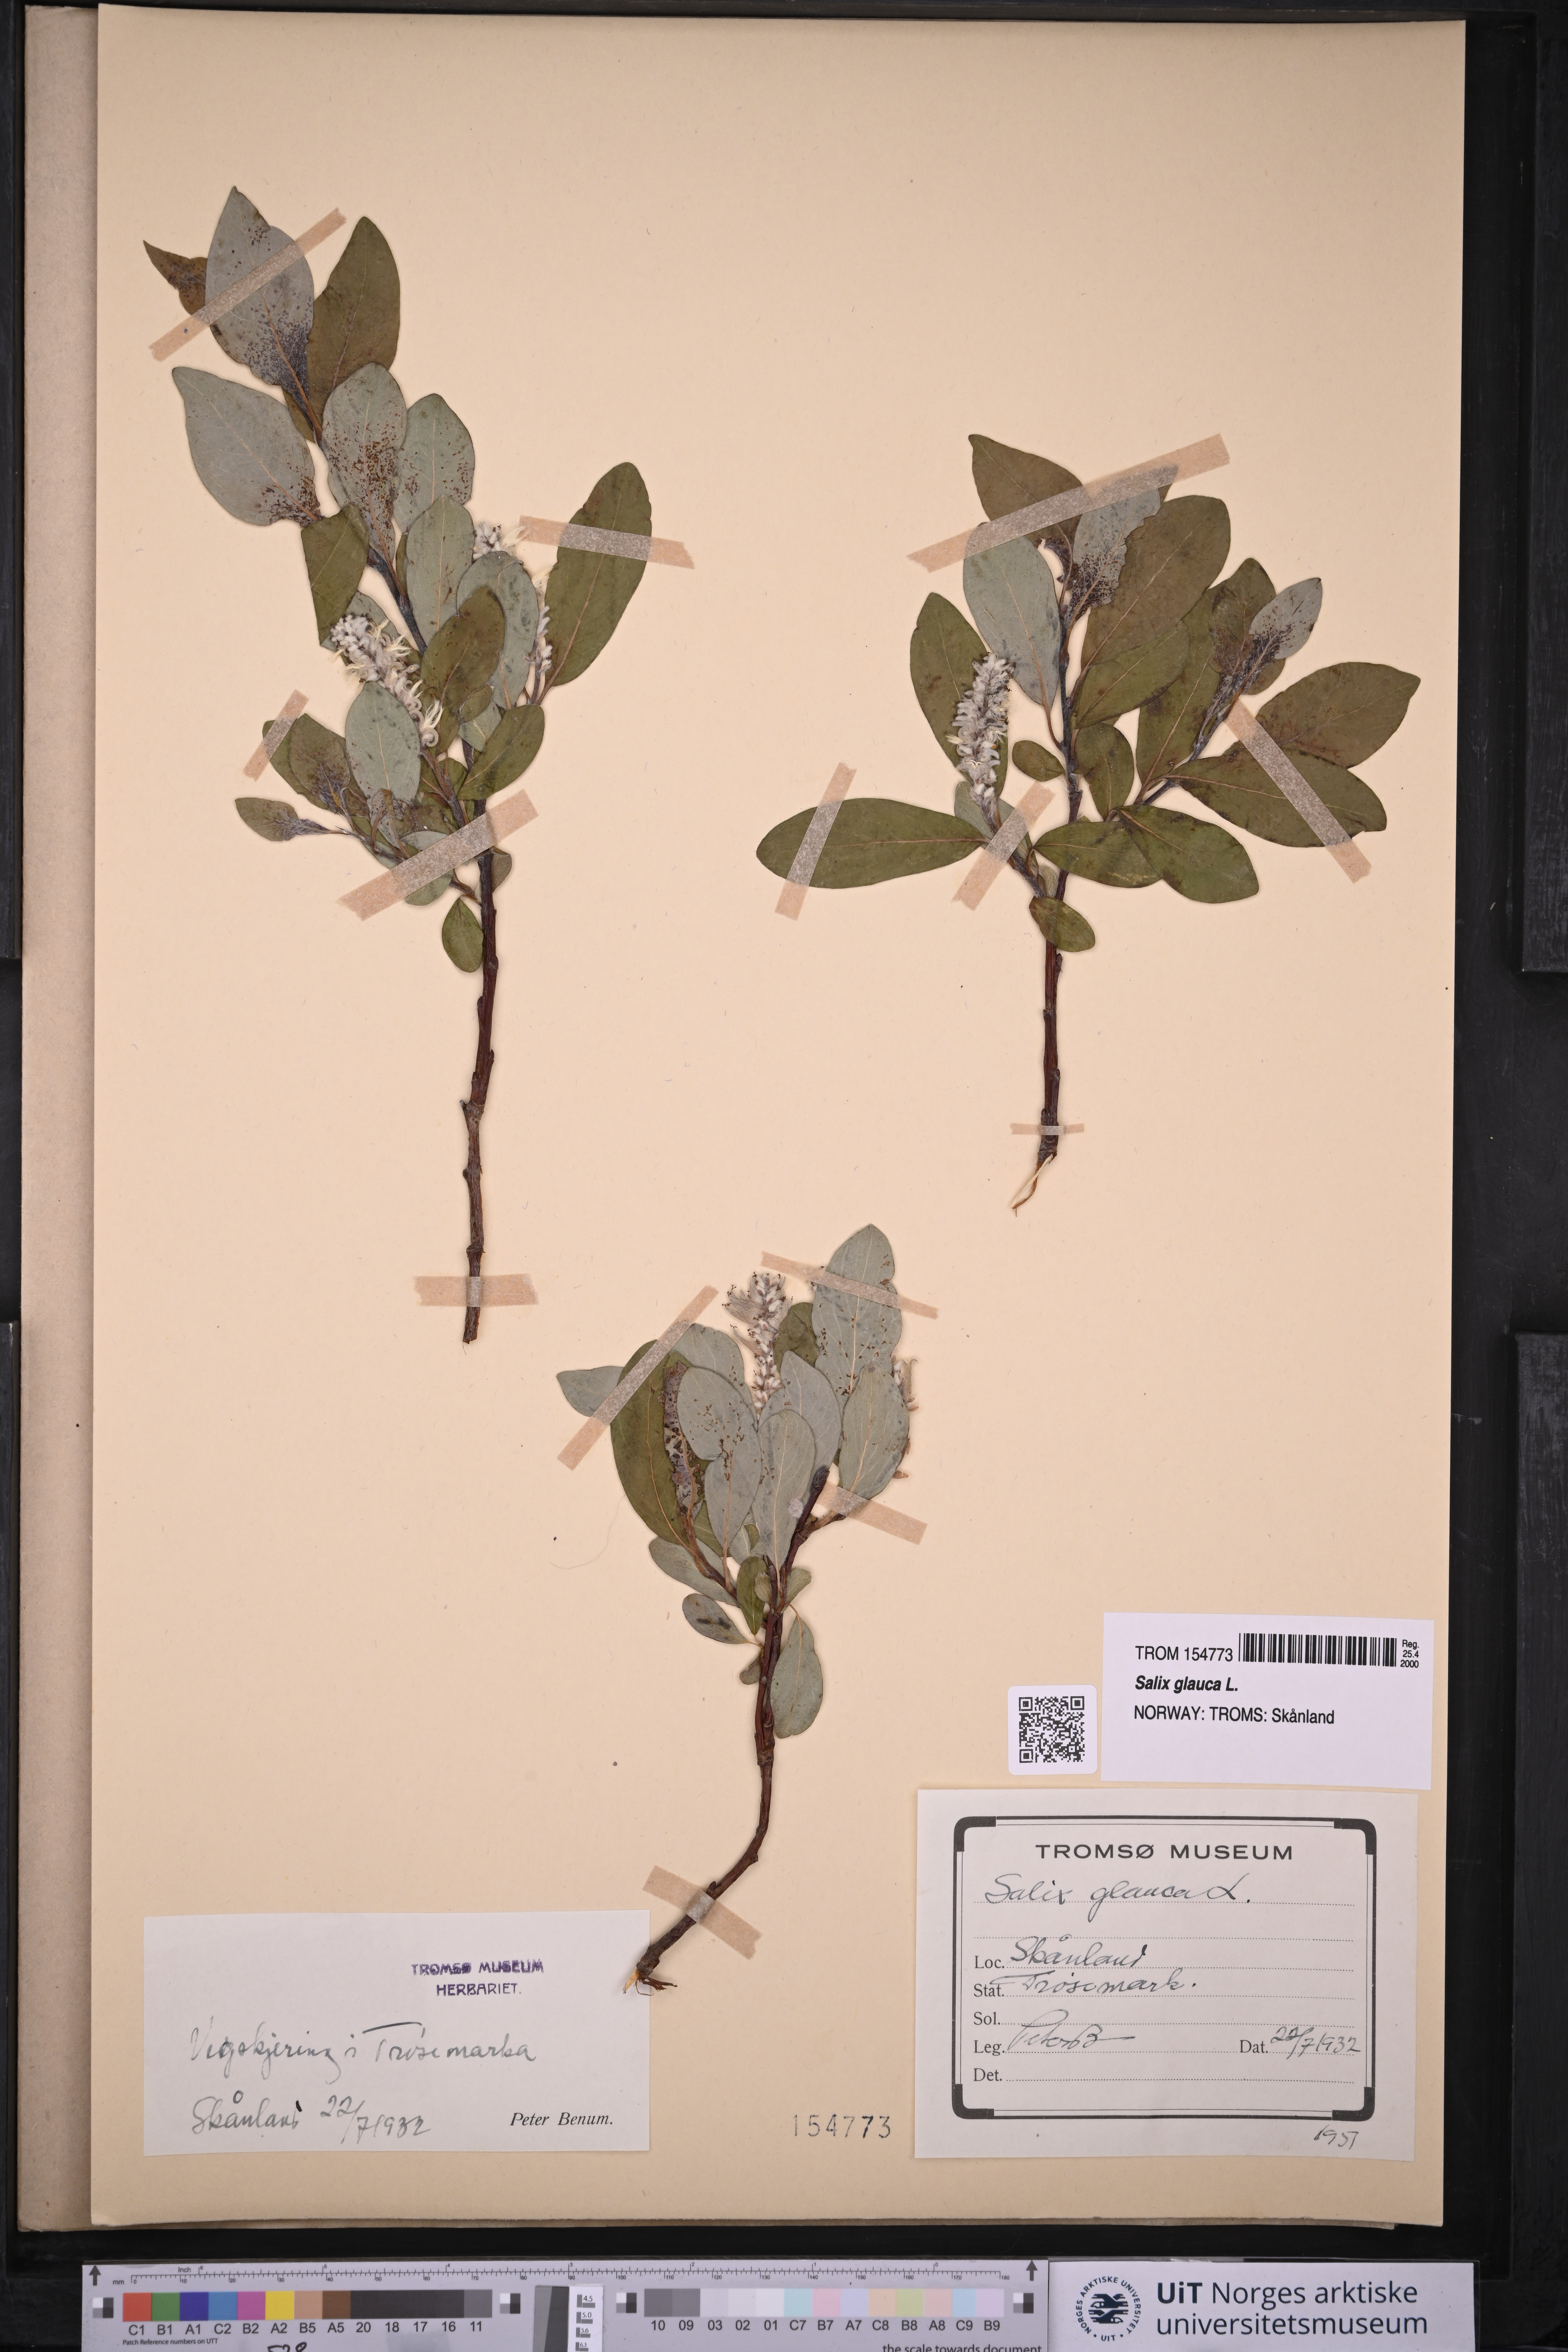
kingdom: Plantae
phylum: Tracheophyta
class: Magnoliopsida
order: Malpighiales
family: Salicaceae
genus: Salix
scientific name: Salix glauca
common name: Glaucous willow
